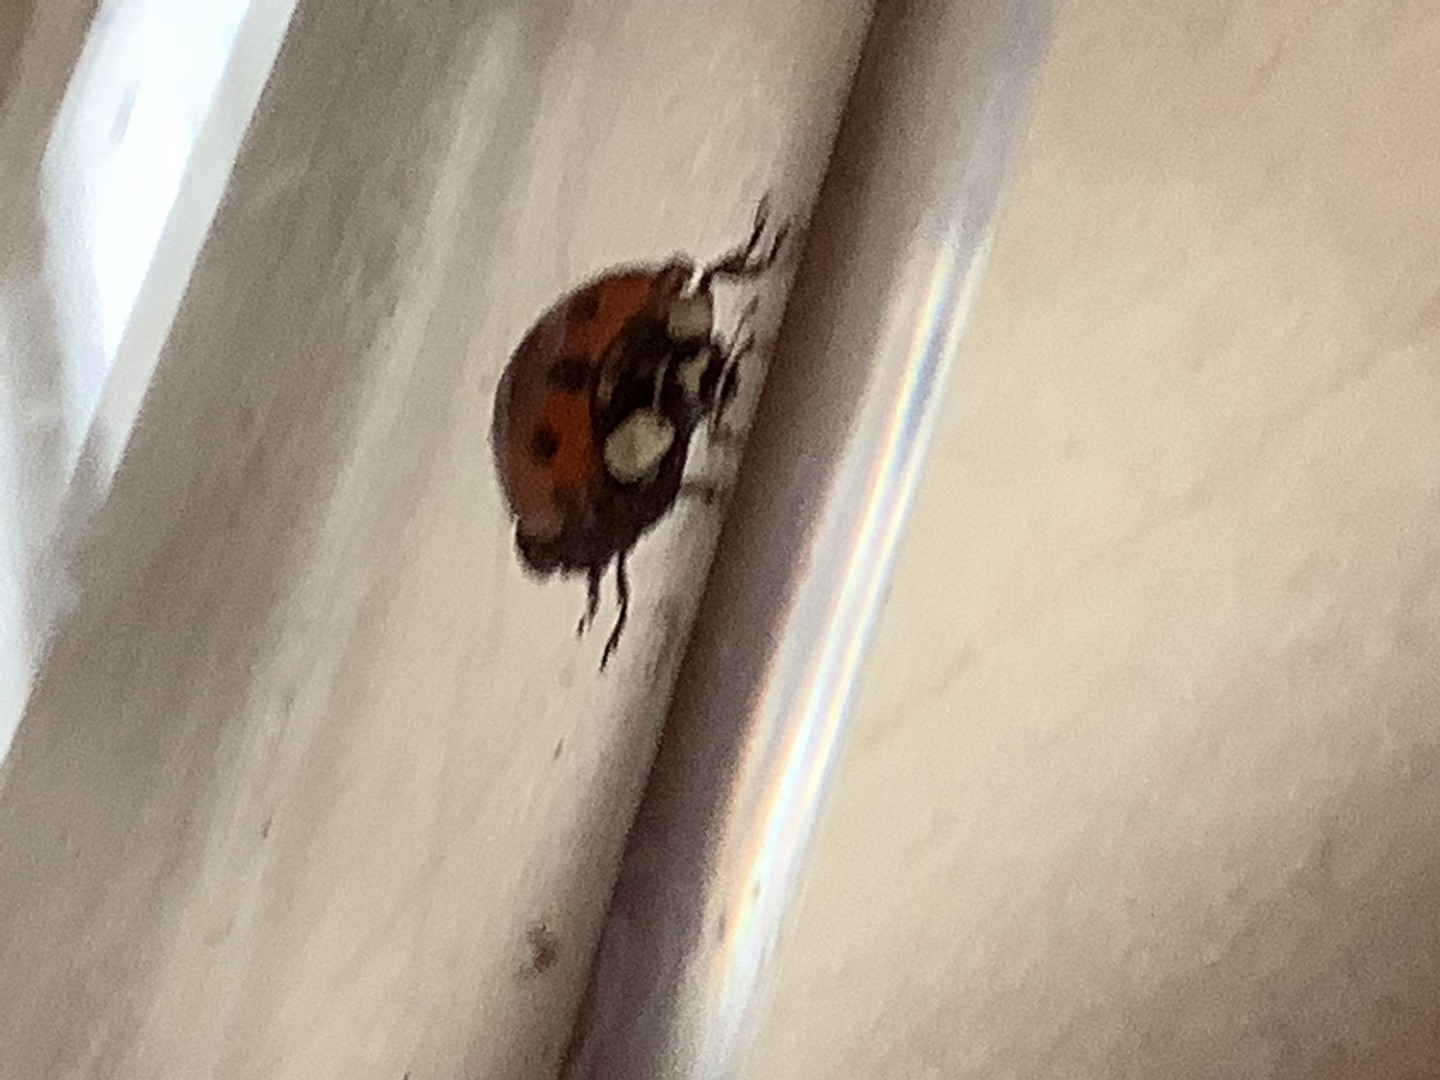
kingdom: Animalia
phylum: Arthropoda
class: Insecta
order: Coleoptera
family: Coccinellidae
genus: Harmonia
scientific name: Harmonia axyridis
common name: Harlekinmariehøne
